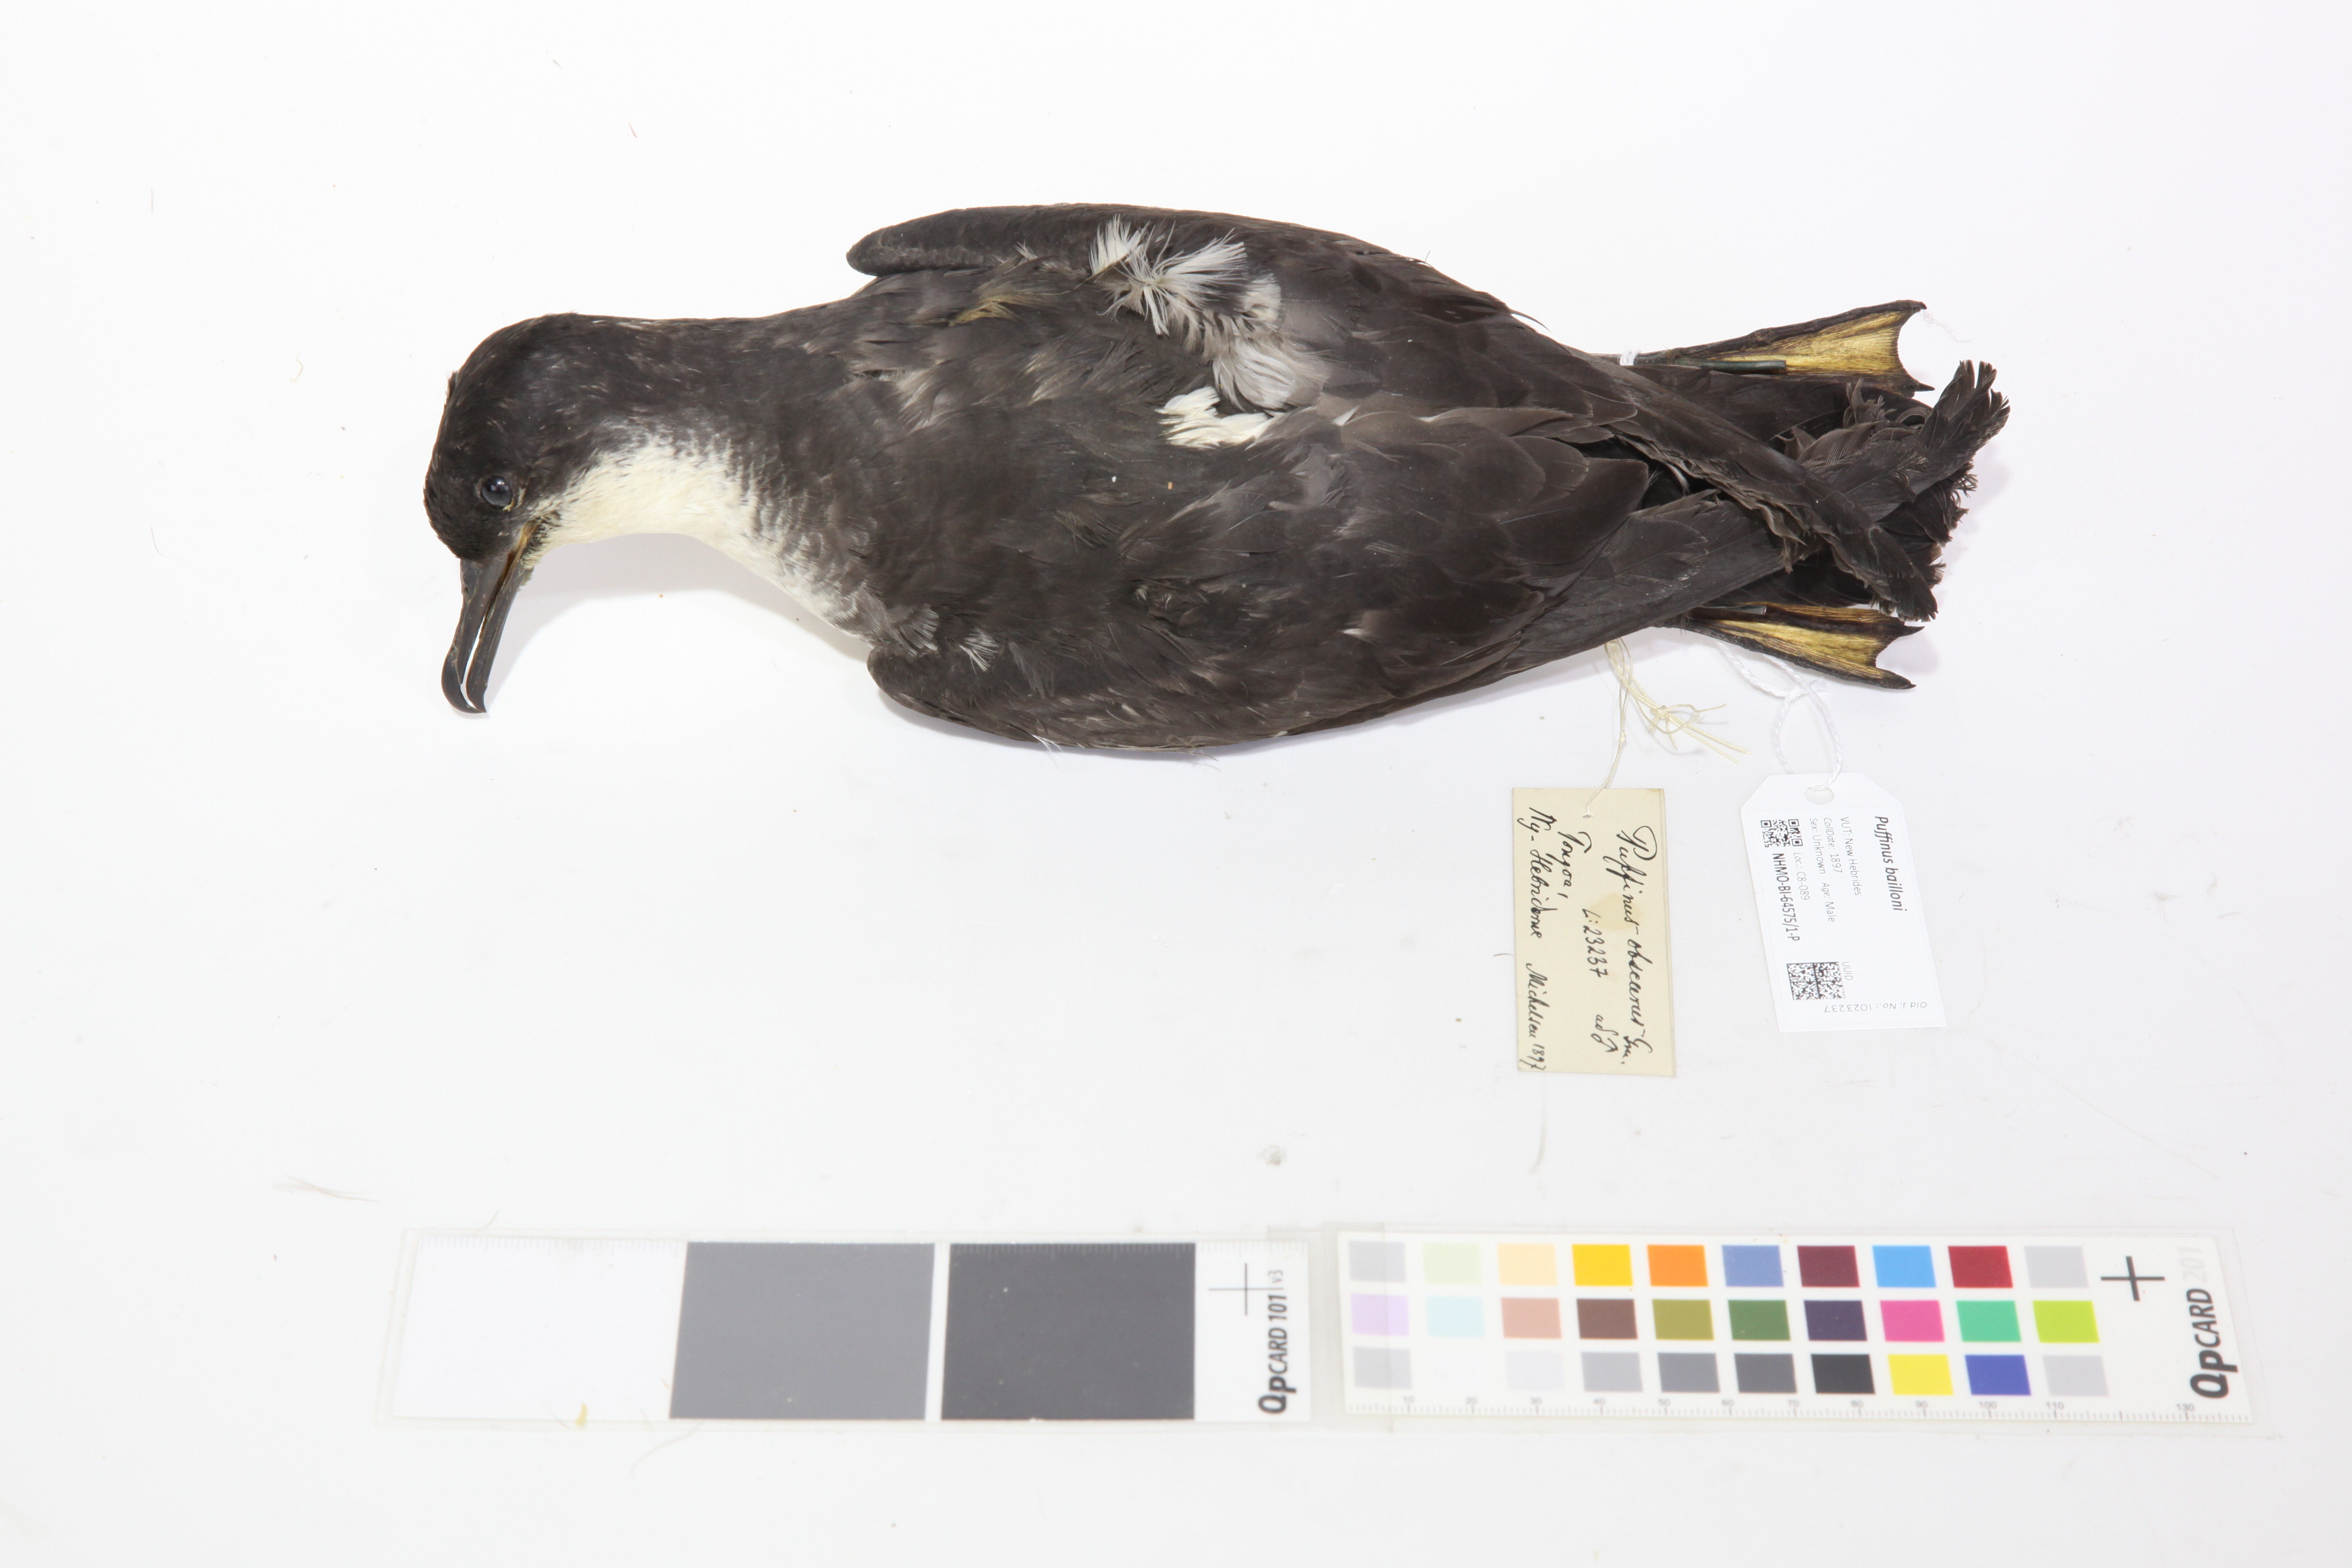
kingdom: Animalia
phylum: Chordata
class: Aves
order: Procellariiformes
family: Procellariidae
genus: Puffinus
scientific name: Puffinus bailloni
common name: Tropical shearwater
